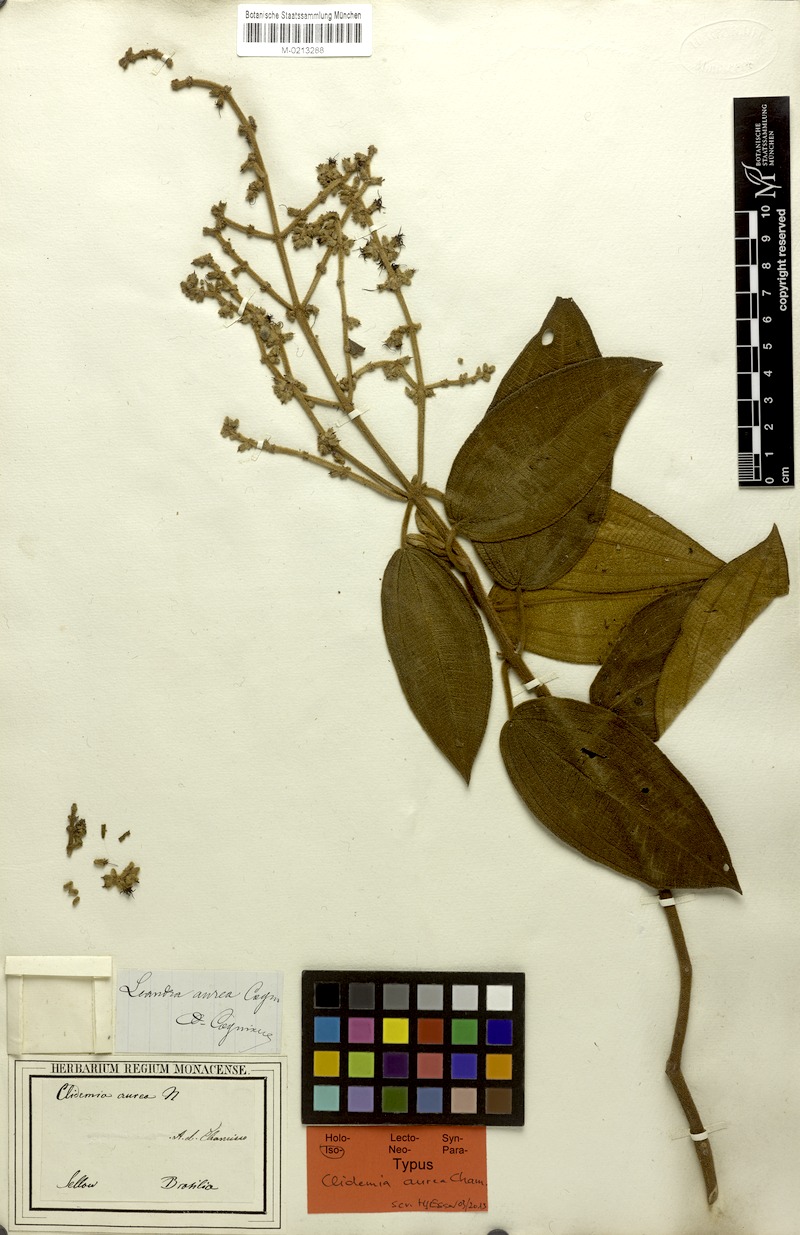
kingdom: Plantae
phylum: Tracheophyta
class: Magnoliopsida
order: Myrtales
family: Melastomataceae
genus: Miconia
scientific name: Miconia auricoma
